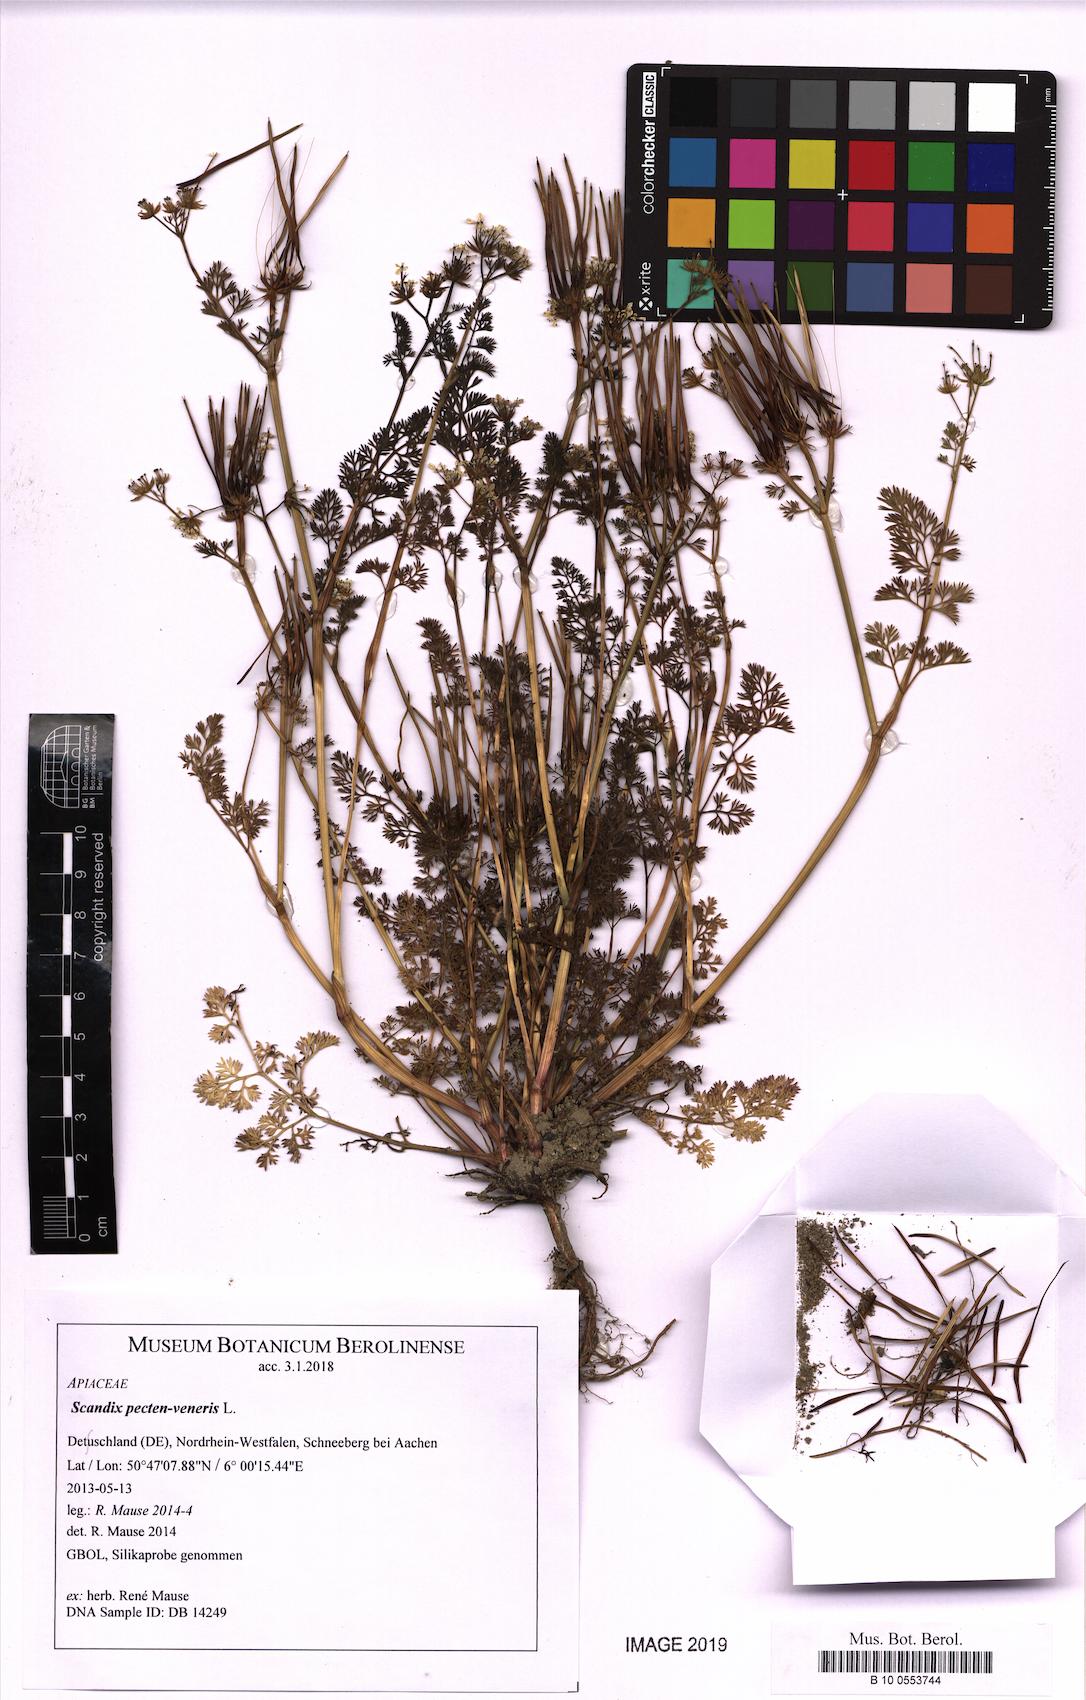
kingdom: Plantae
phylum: Tracheophyta
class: Magnoliopsida
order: Apiales
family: Apiaceae
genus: Scandix
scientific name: Scandix pecten-veneris
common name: Shepherd's-needle
